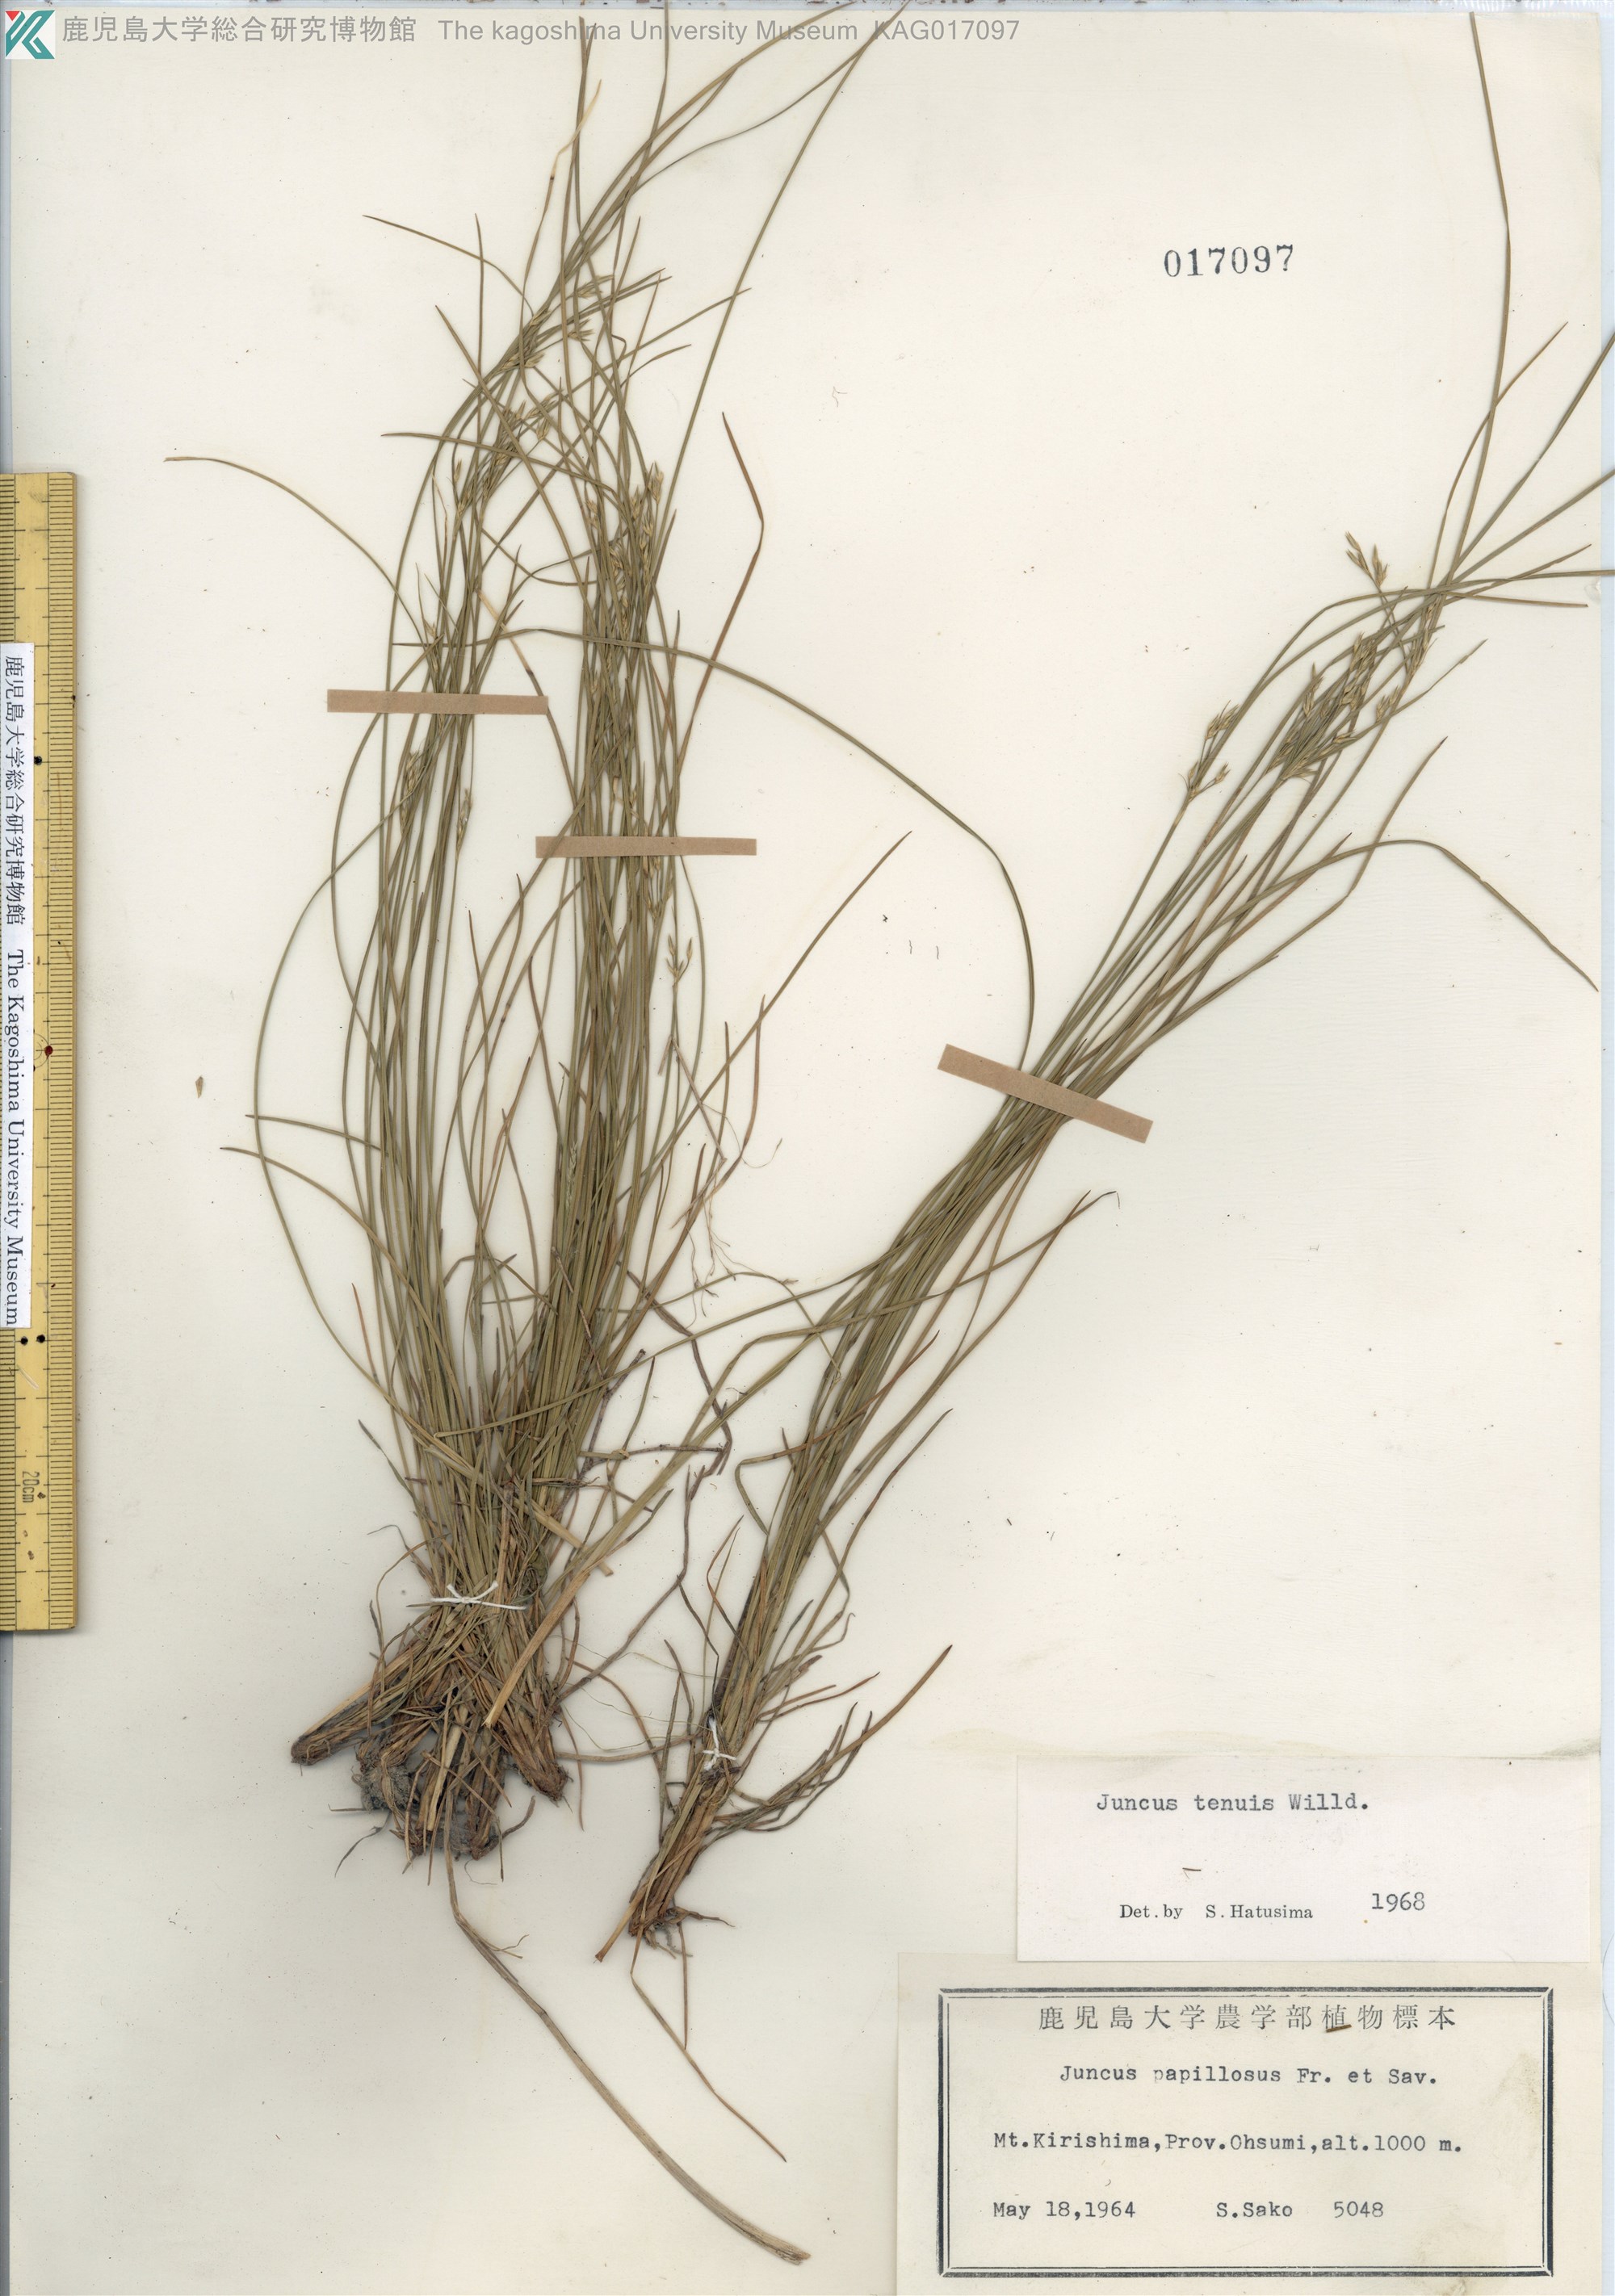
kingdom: Plantae
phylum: Tracheophyta
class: Liliopsida
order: Poales
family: Juncaceae
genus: Juncus
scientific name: Juncus tenuis
